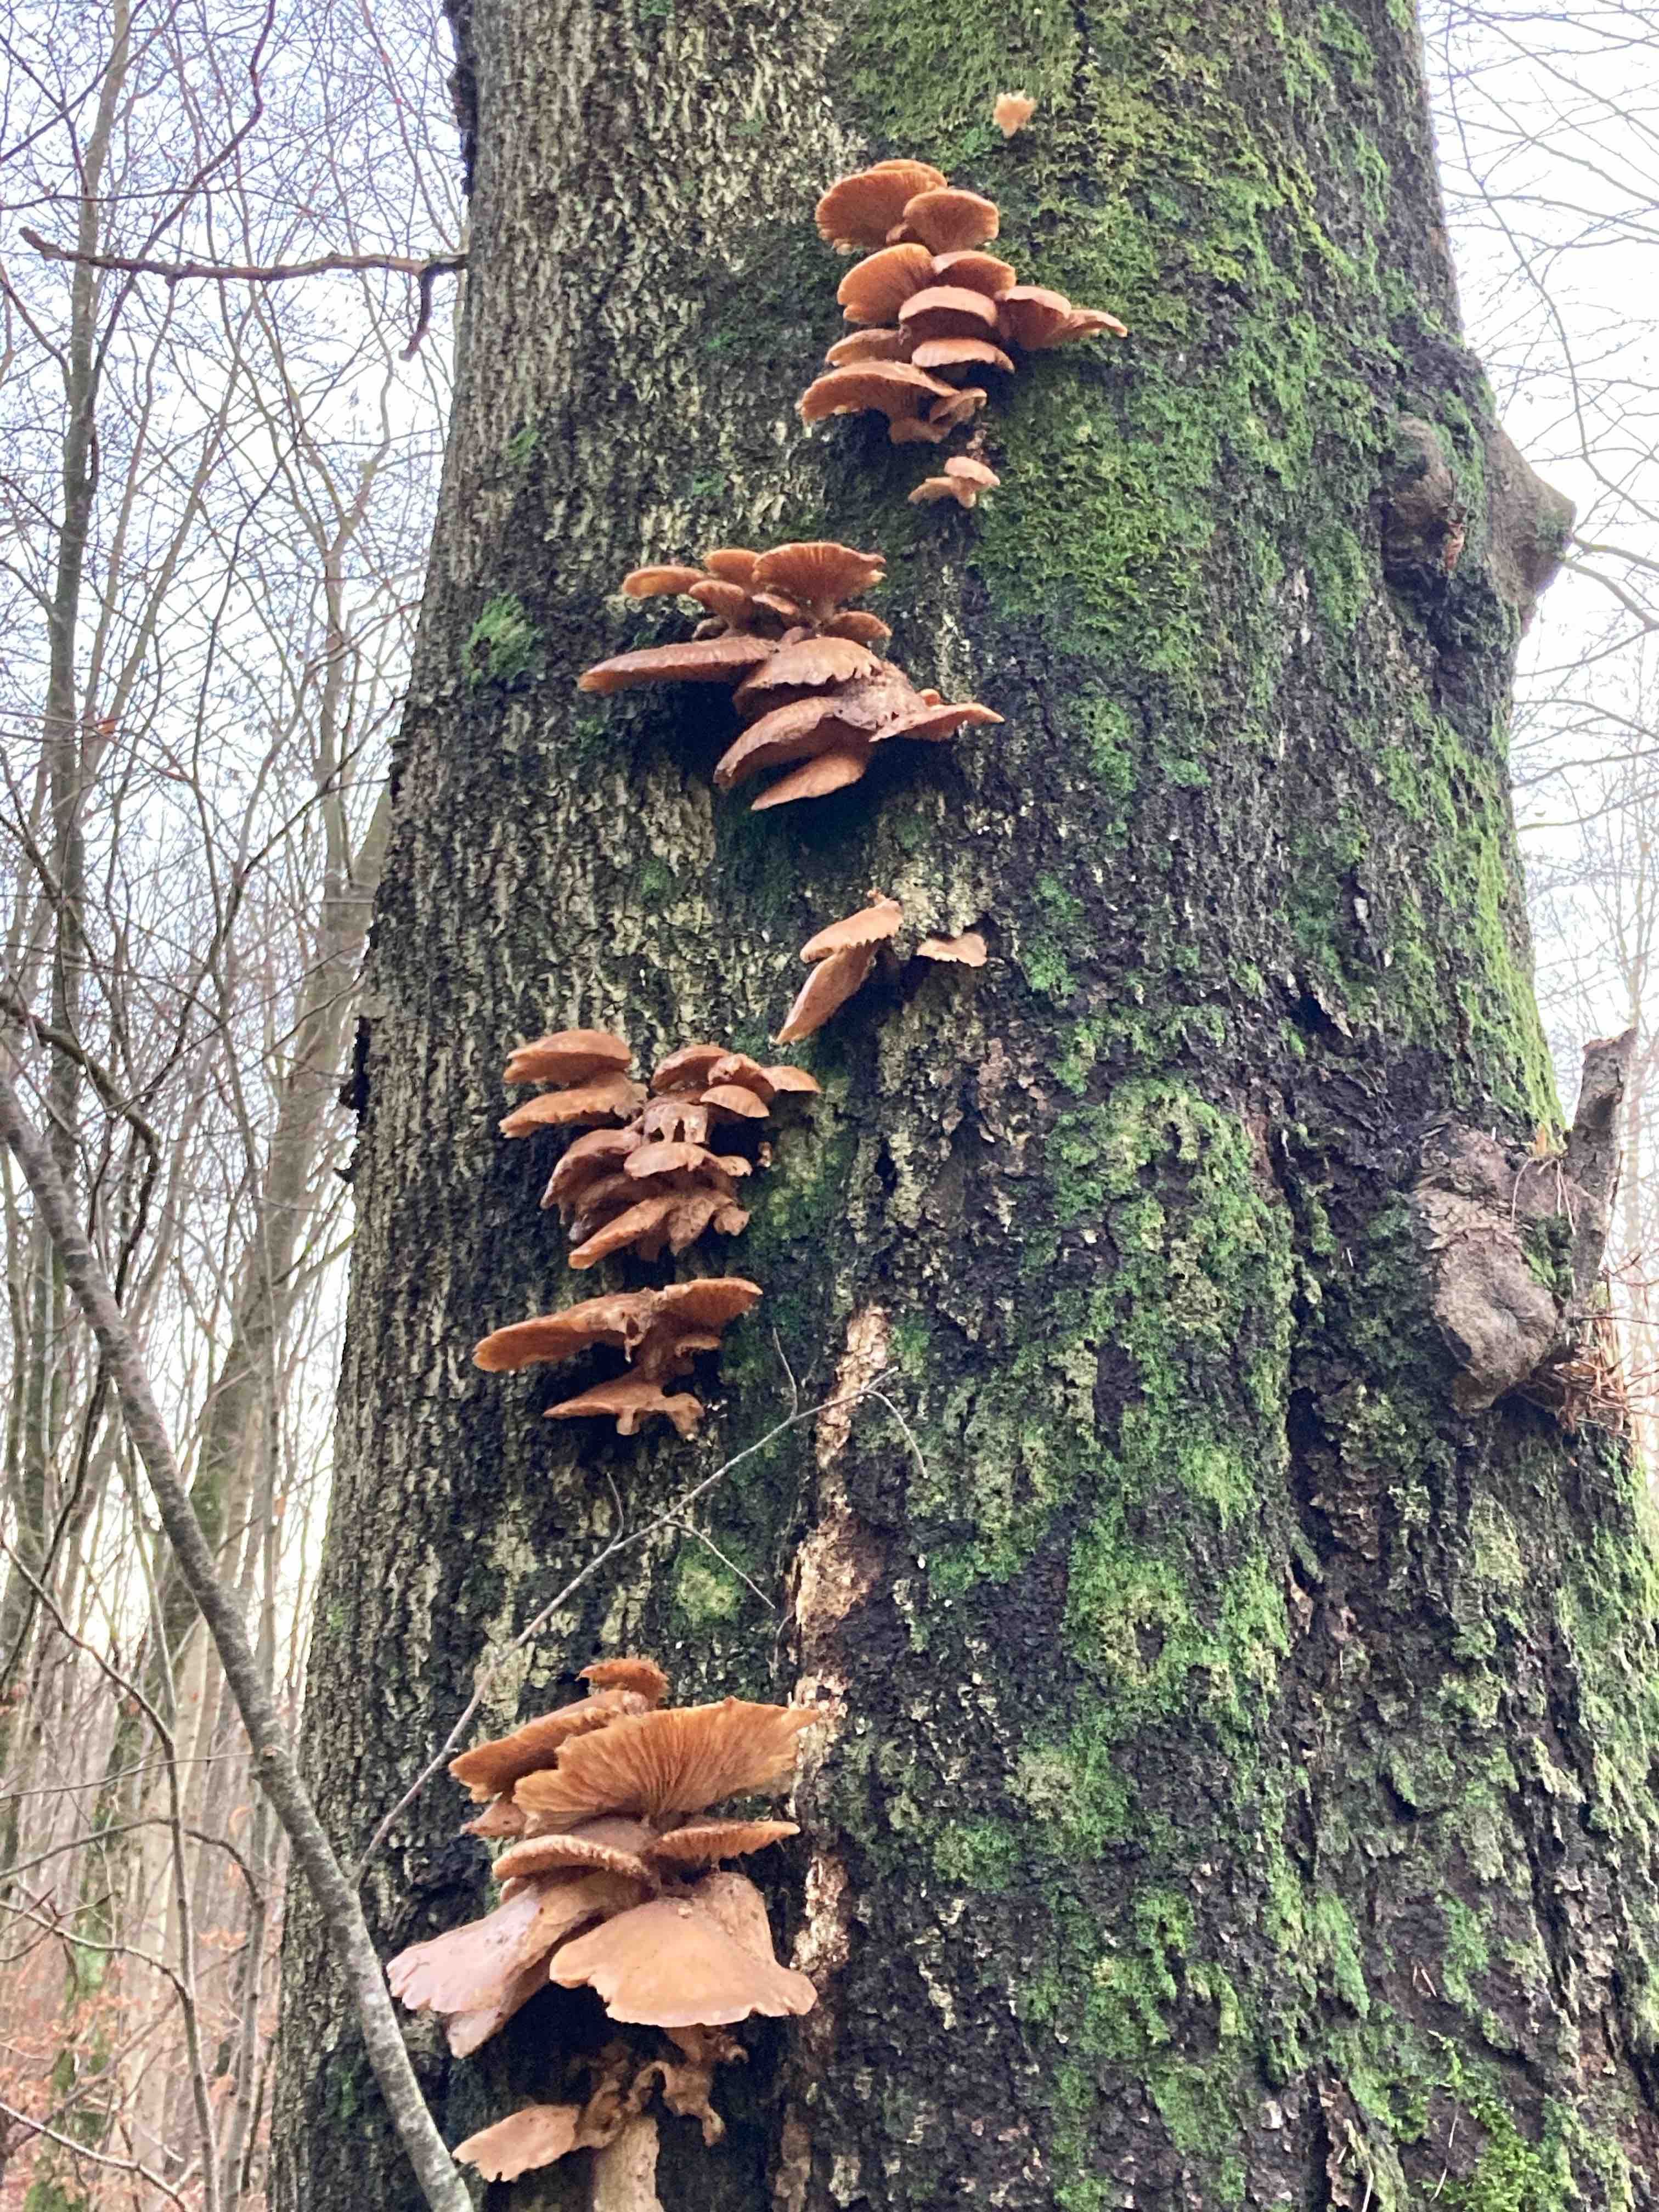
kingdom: Plantae
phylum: Bryophyta
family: Agaricomycetidae
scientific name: Agaricomycetidae
